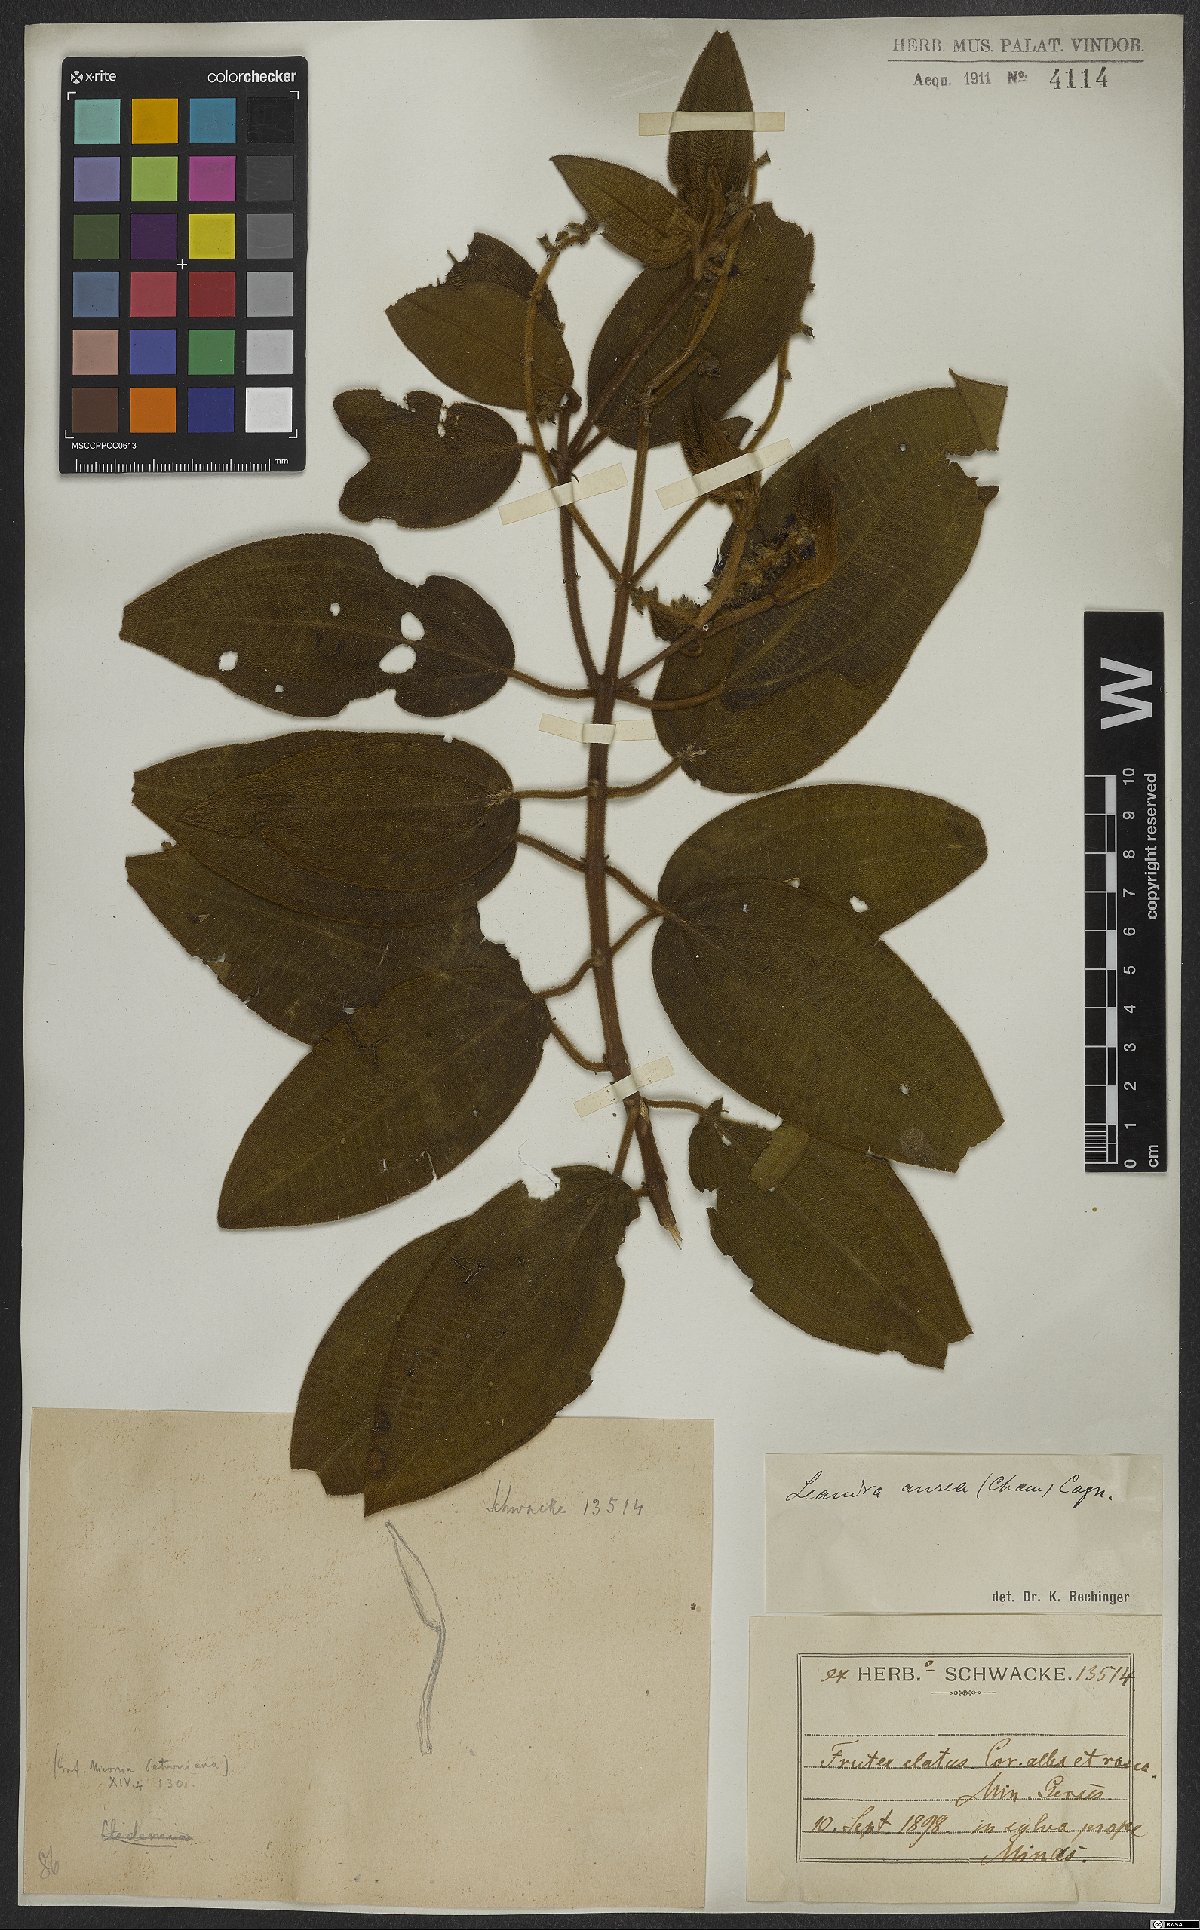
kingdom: Plantae
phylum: Tracheophyta
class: Magnoliopsida
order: Myrtales
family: Melastomataceae
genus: Miconia
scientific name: Miconia auricoma
